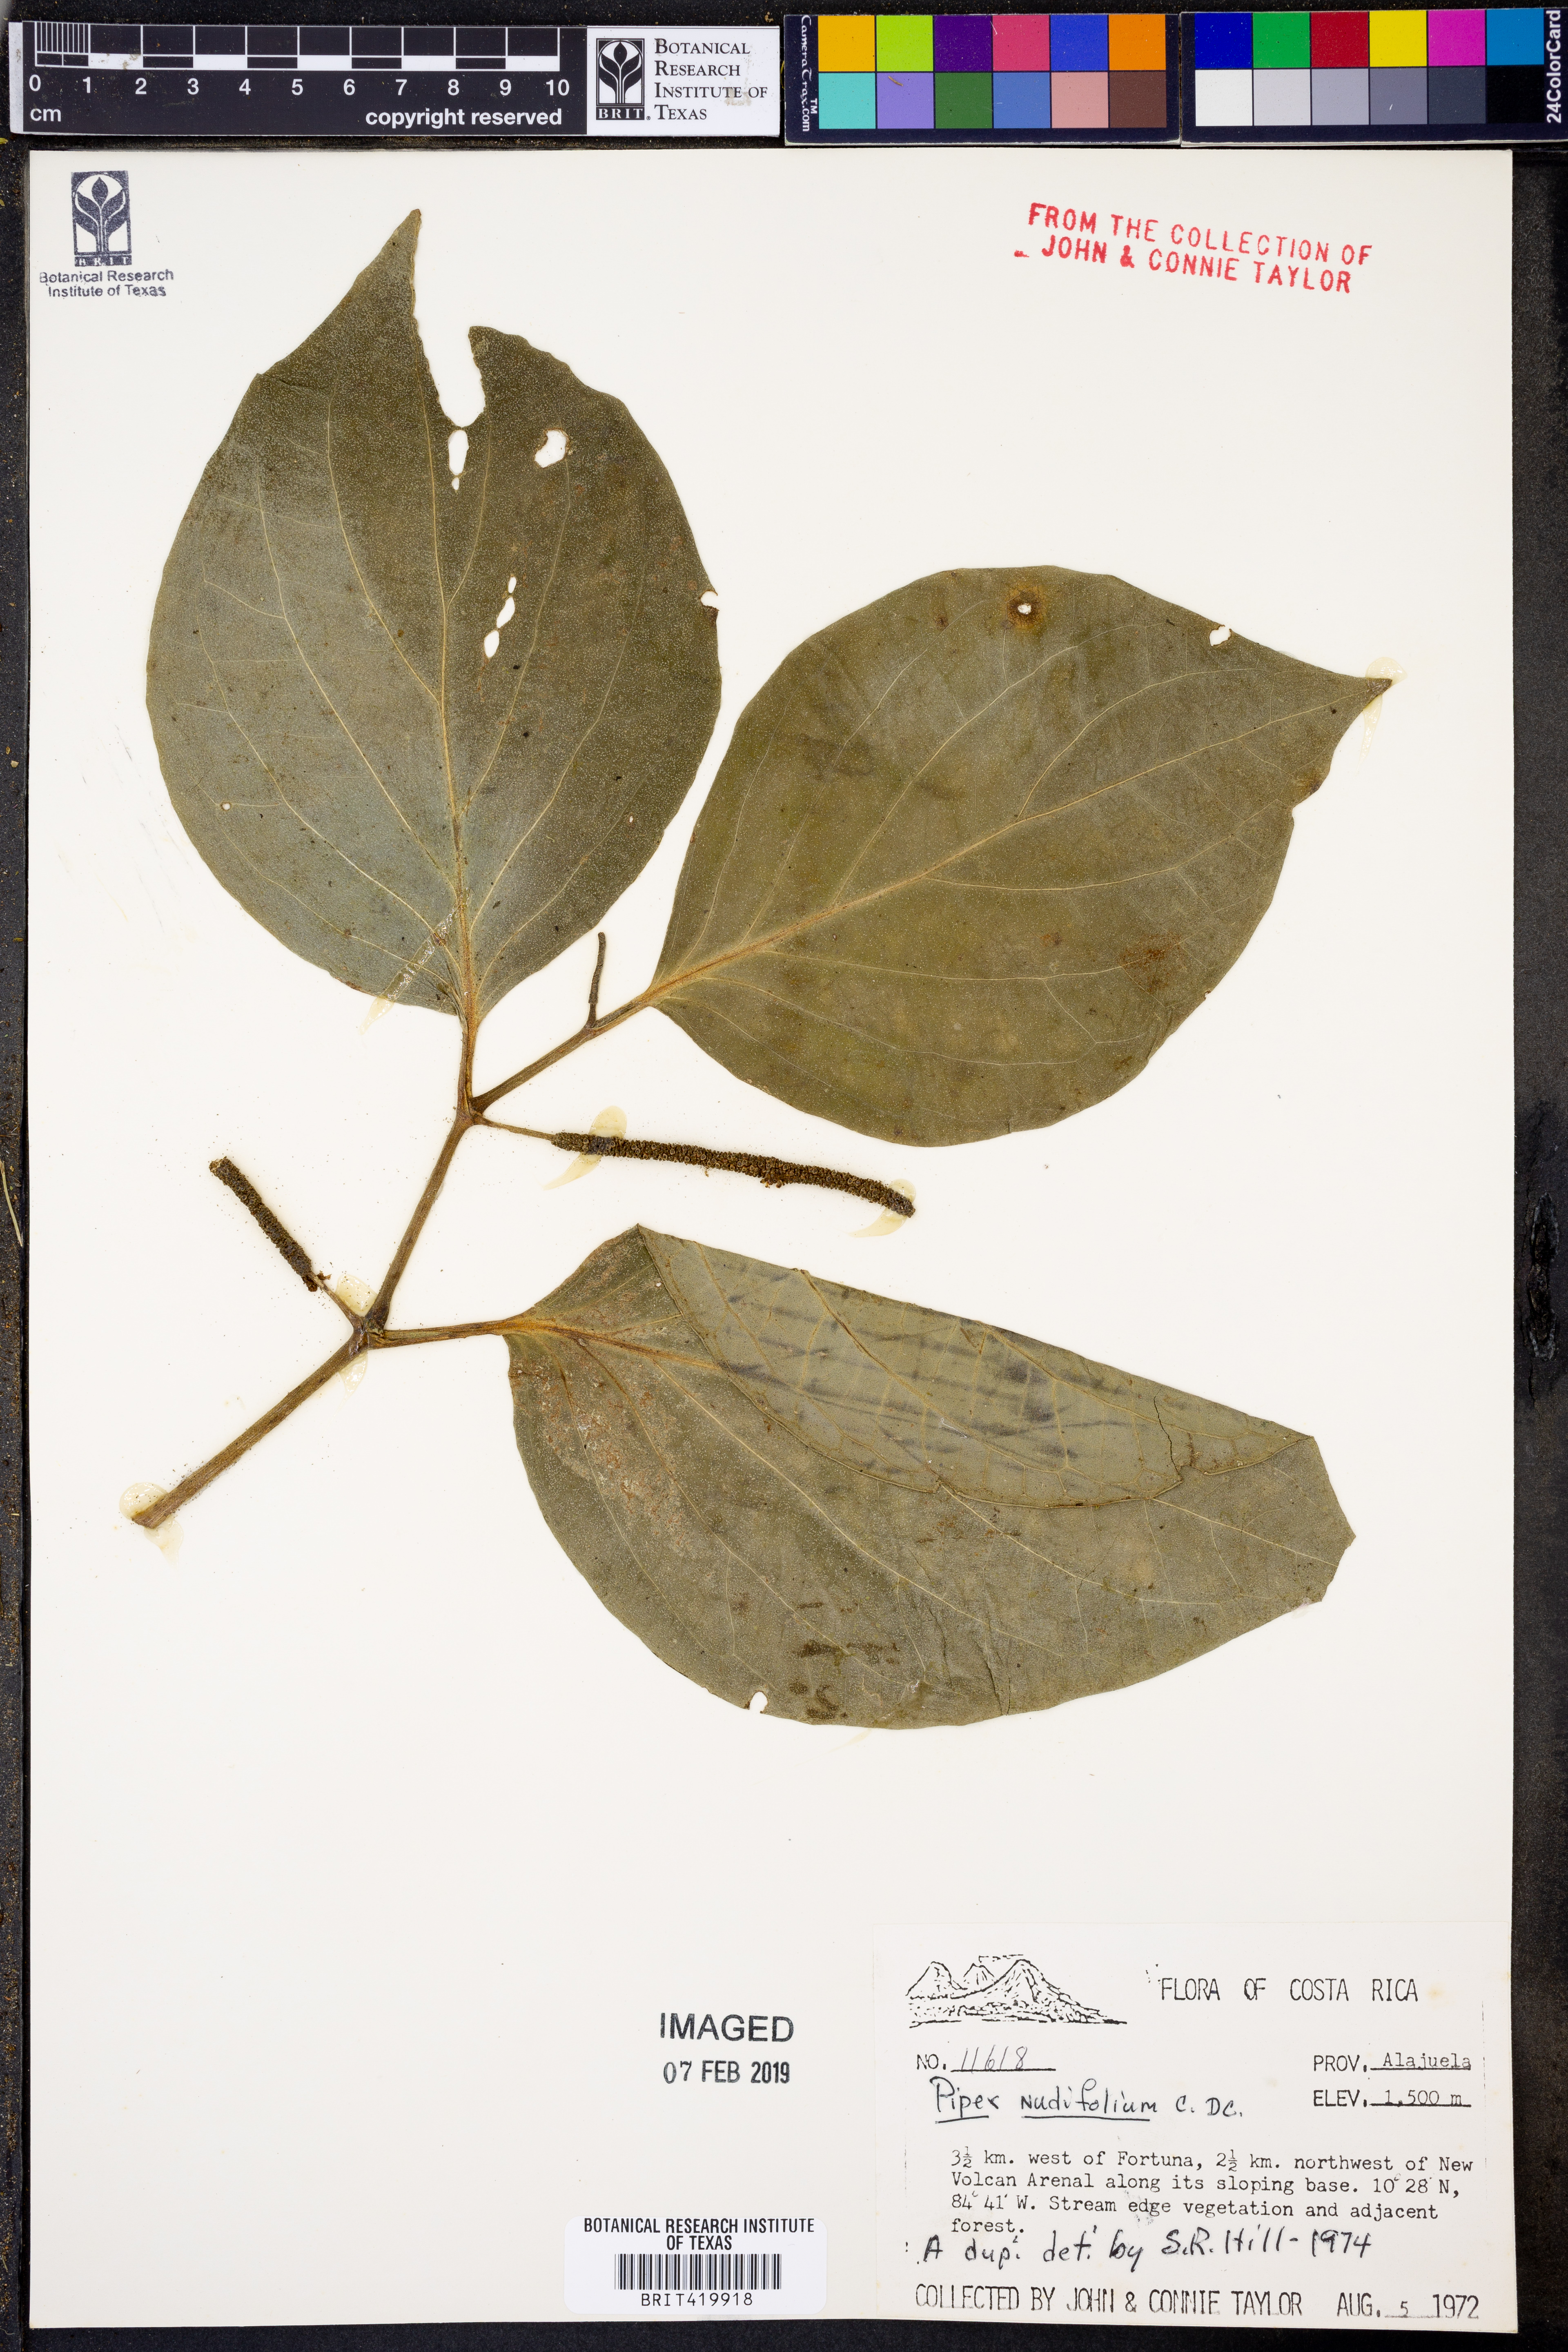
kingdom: Plantae
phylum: Tracheophyta
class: Magnoliopsida
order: Piperales
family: Piperaceae
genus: Piper
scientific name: Piper nudifolium
